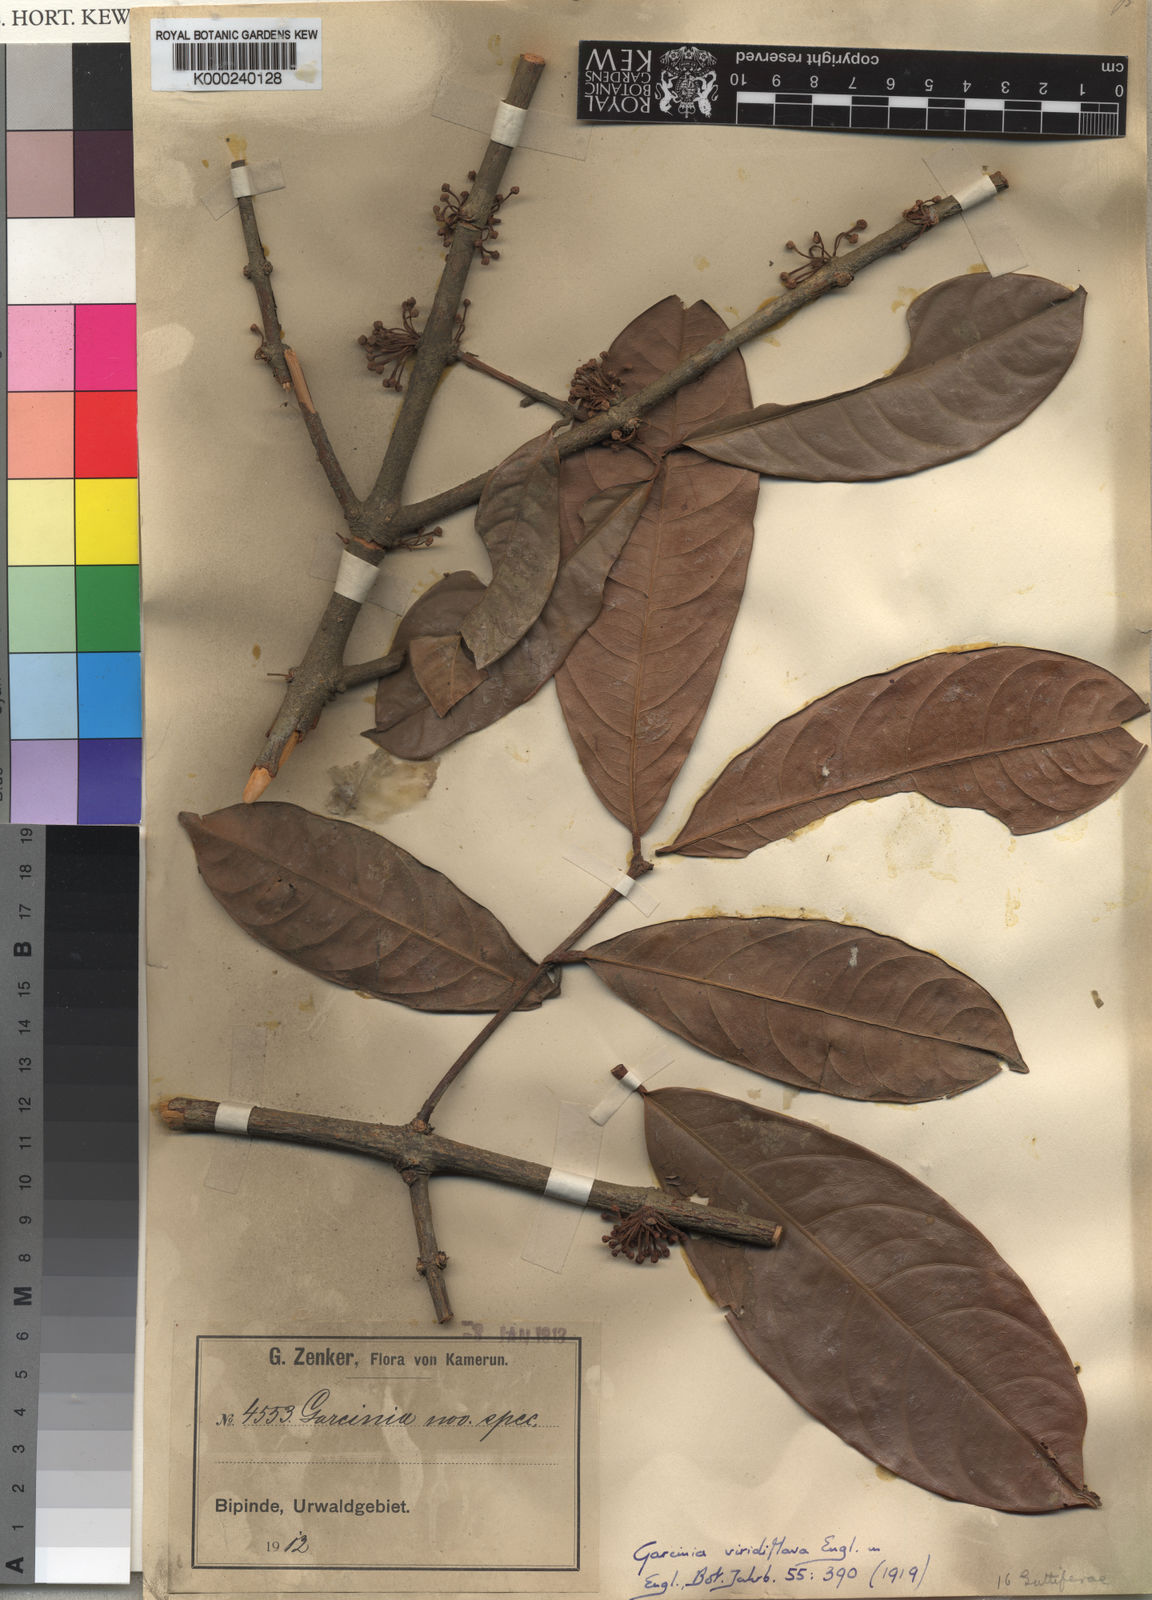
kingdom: Plantae
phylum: Tracheophyta
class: Magnoliopsida
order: Malpighiales
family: Clusiaceae
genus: Garcinia
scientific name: Garcinia smeathmannii
